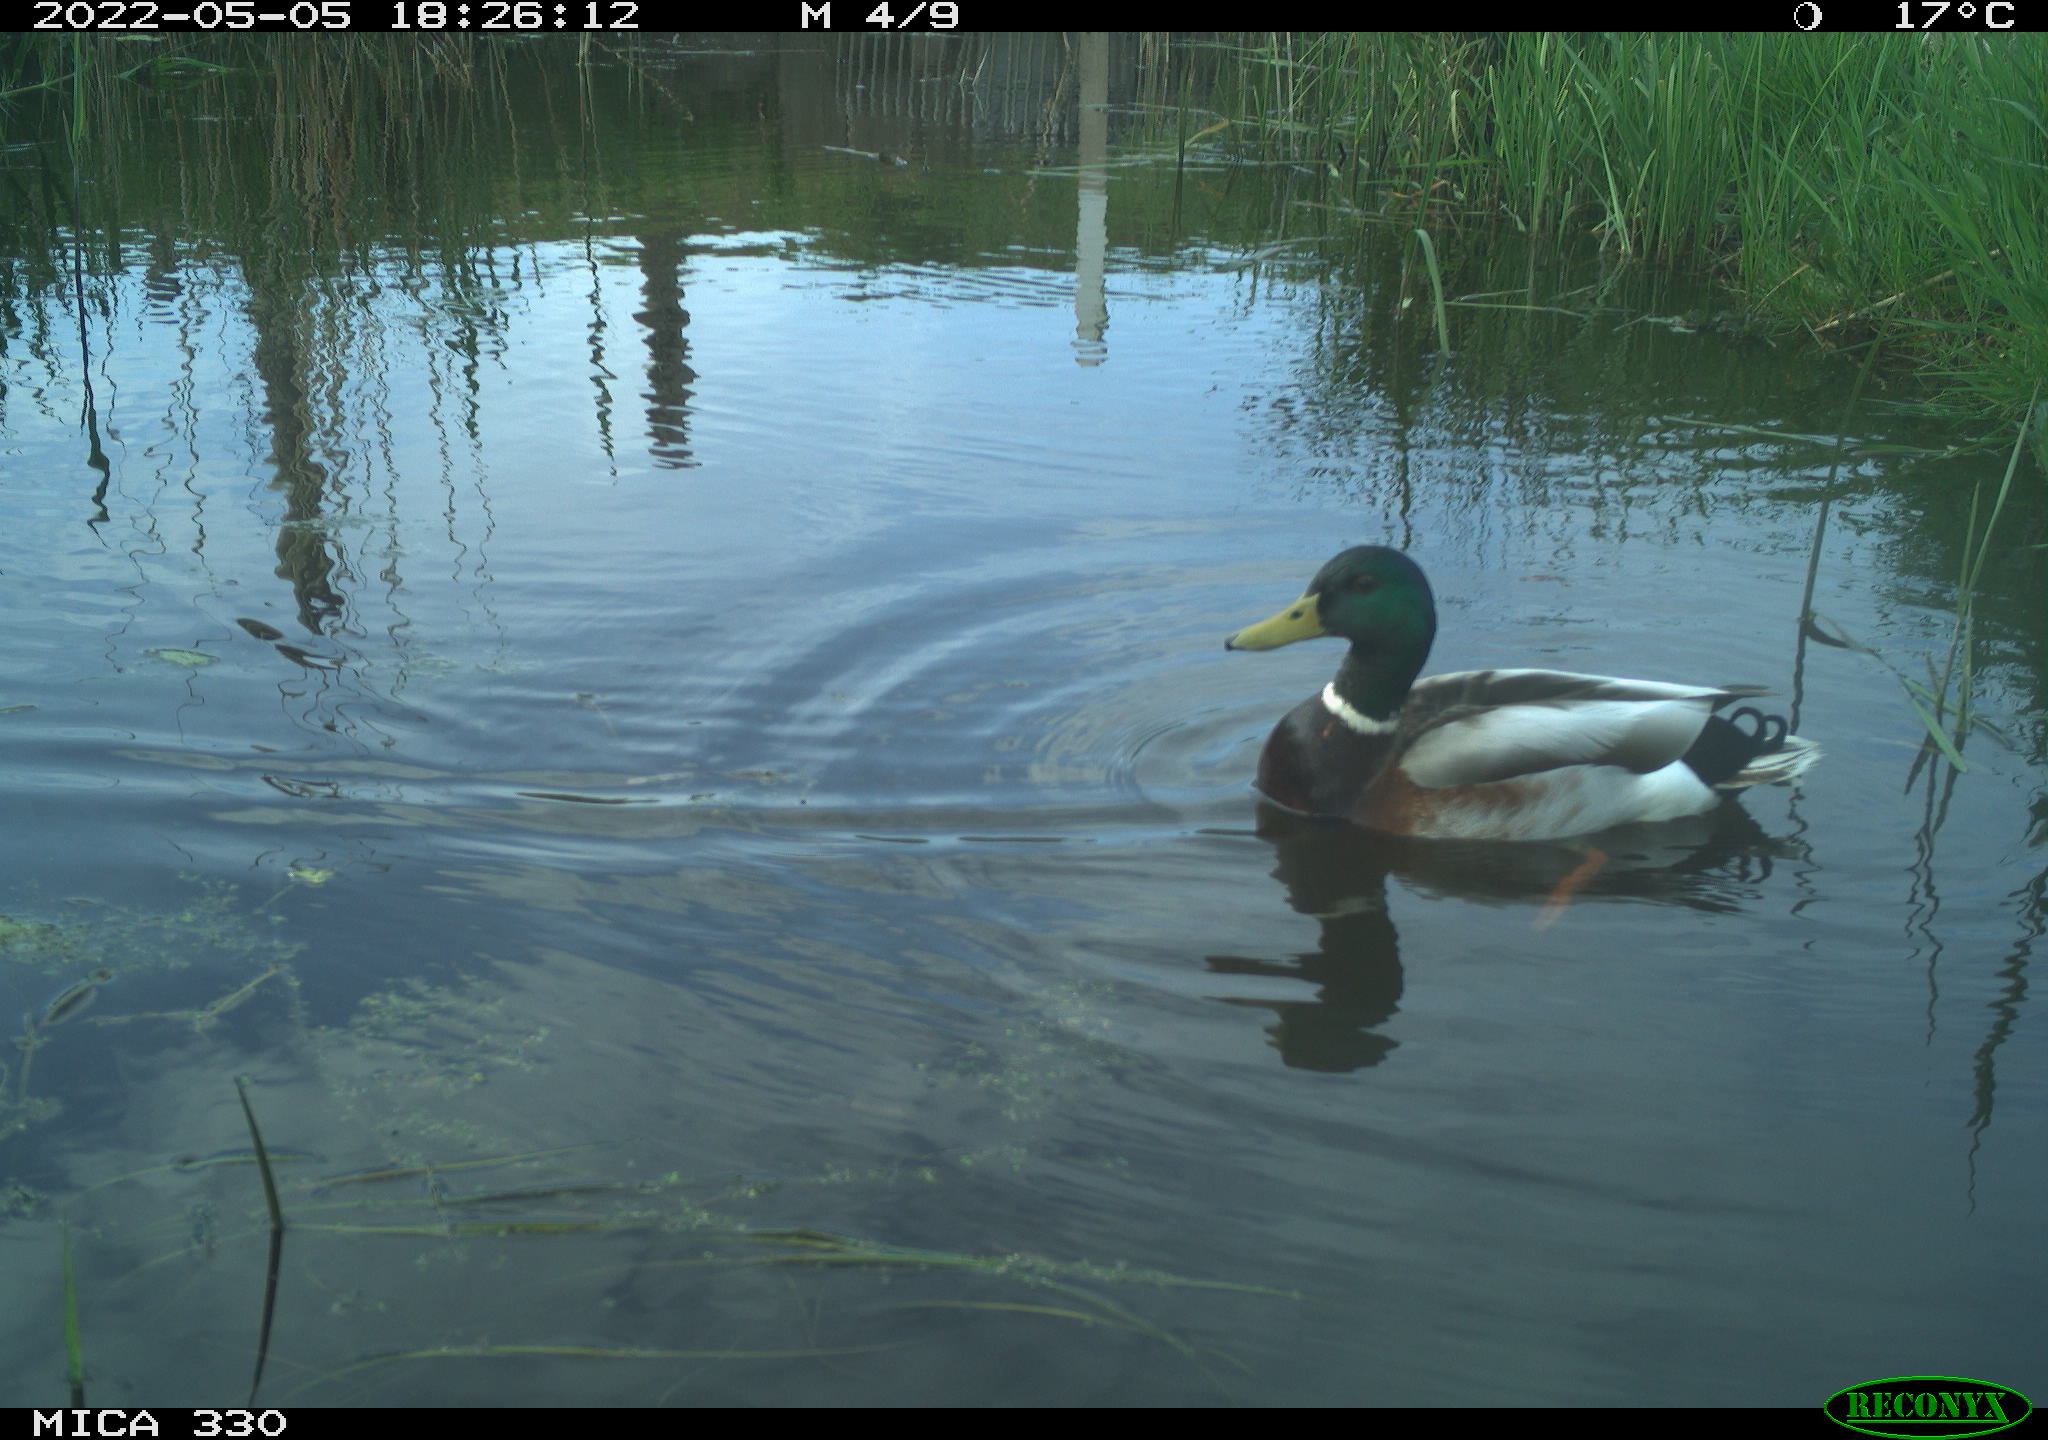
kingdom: Animalia
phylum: Chordata
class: Aves
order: Anseriformes
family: Anatidae
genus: Anas
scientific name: Anas platyrhynchos
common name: Mallard
